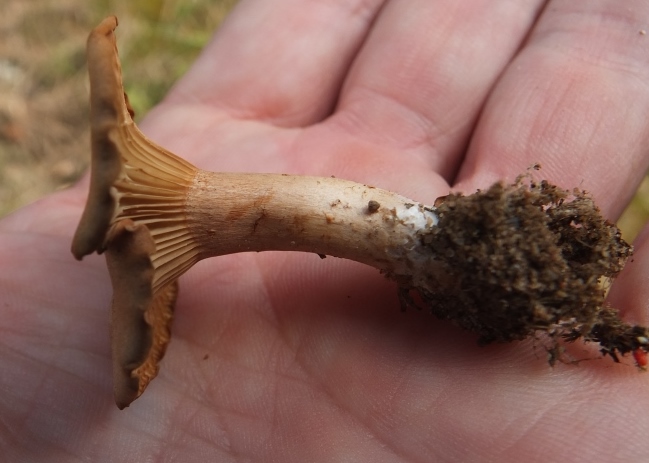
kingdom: Fungi
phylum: Basidiomycota
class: Agaricomycetes
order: Agaricales
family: Pseudoclitocybaceae
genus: Bonomyces
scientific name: Bonomyces sinopicus
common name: svedje-tragthat
